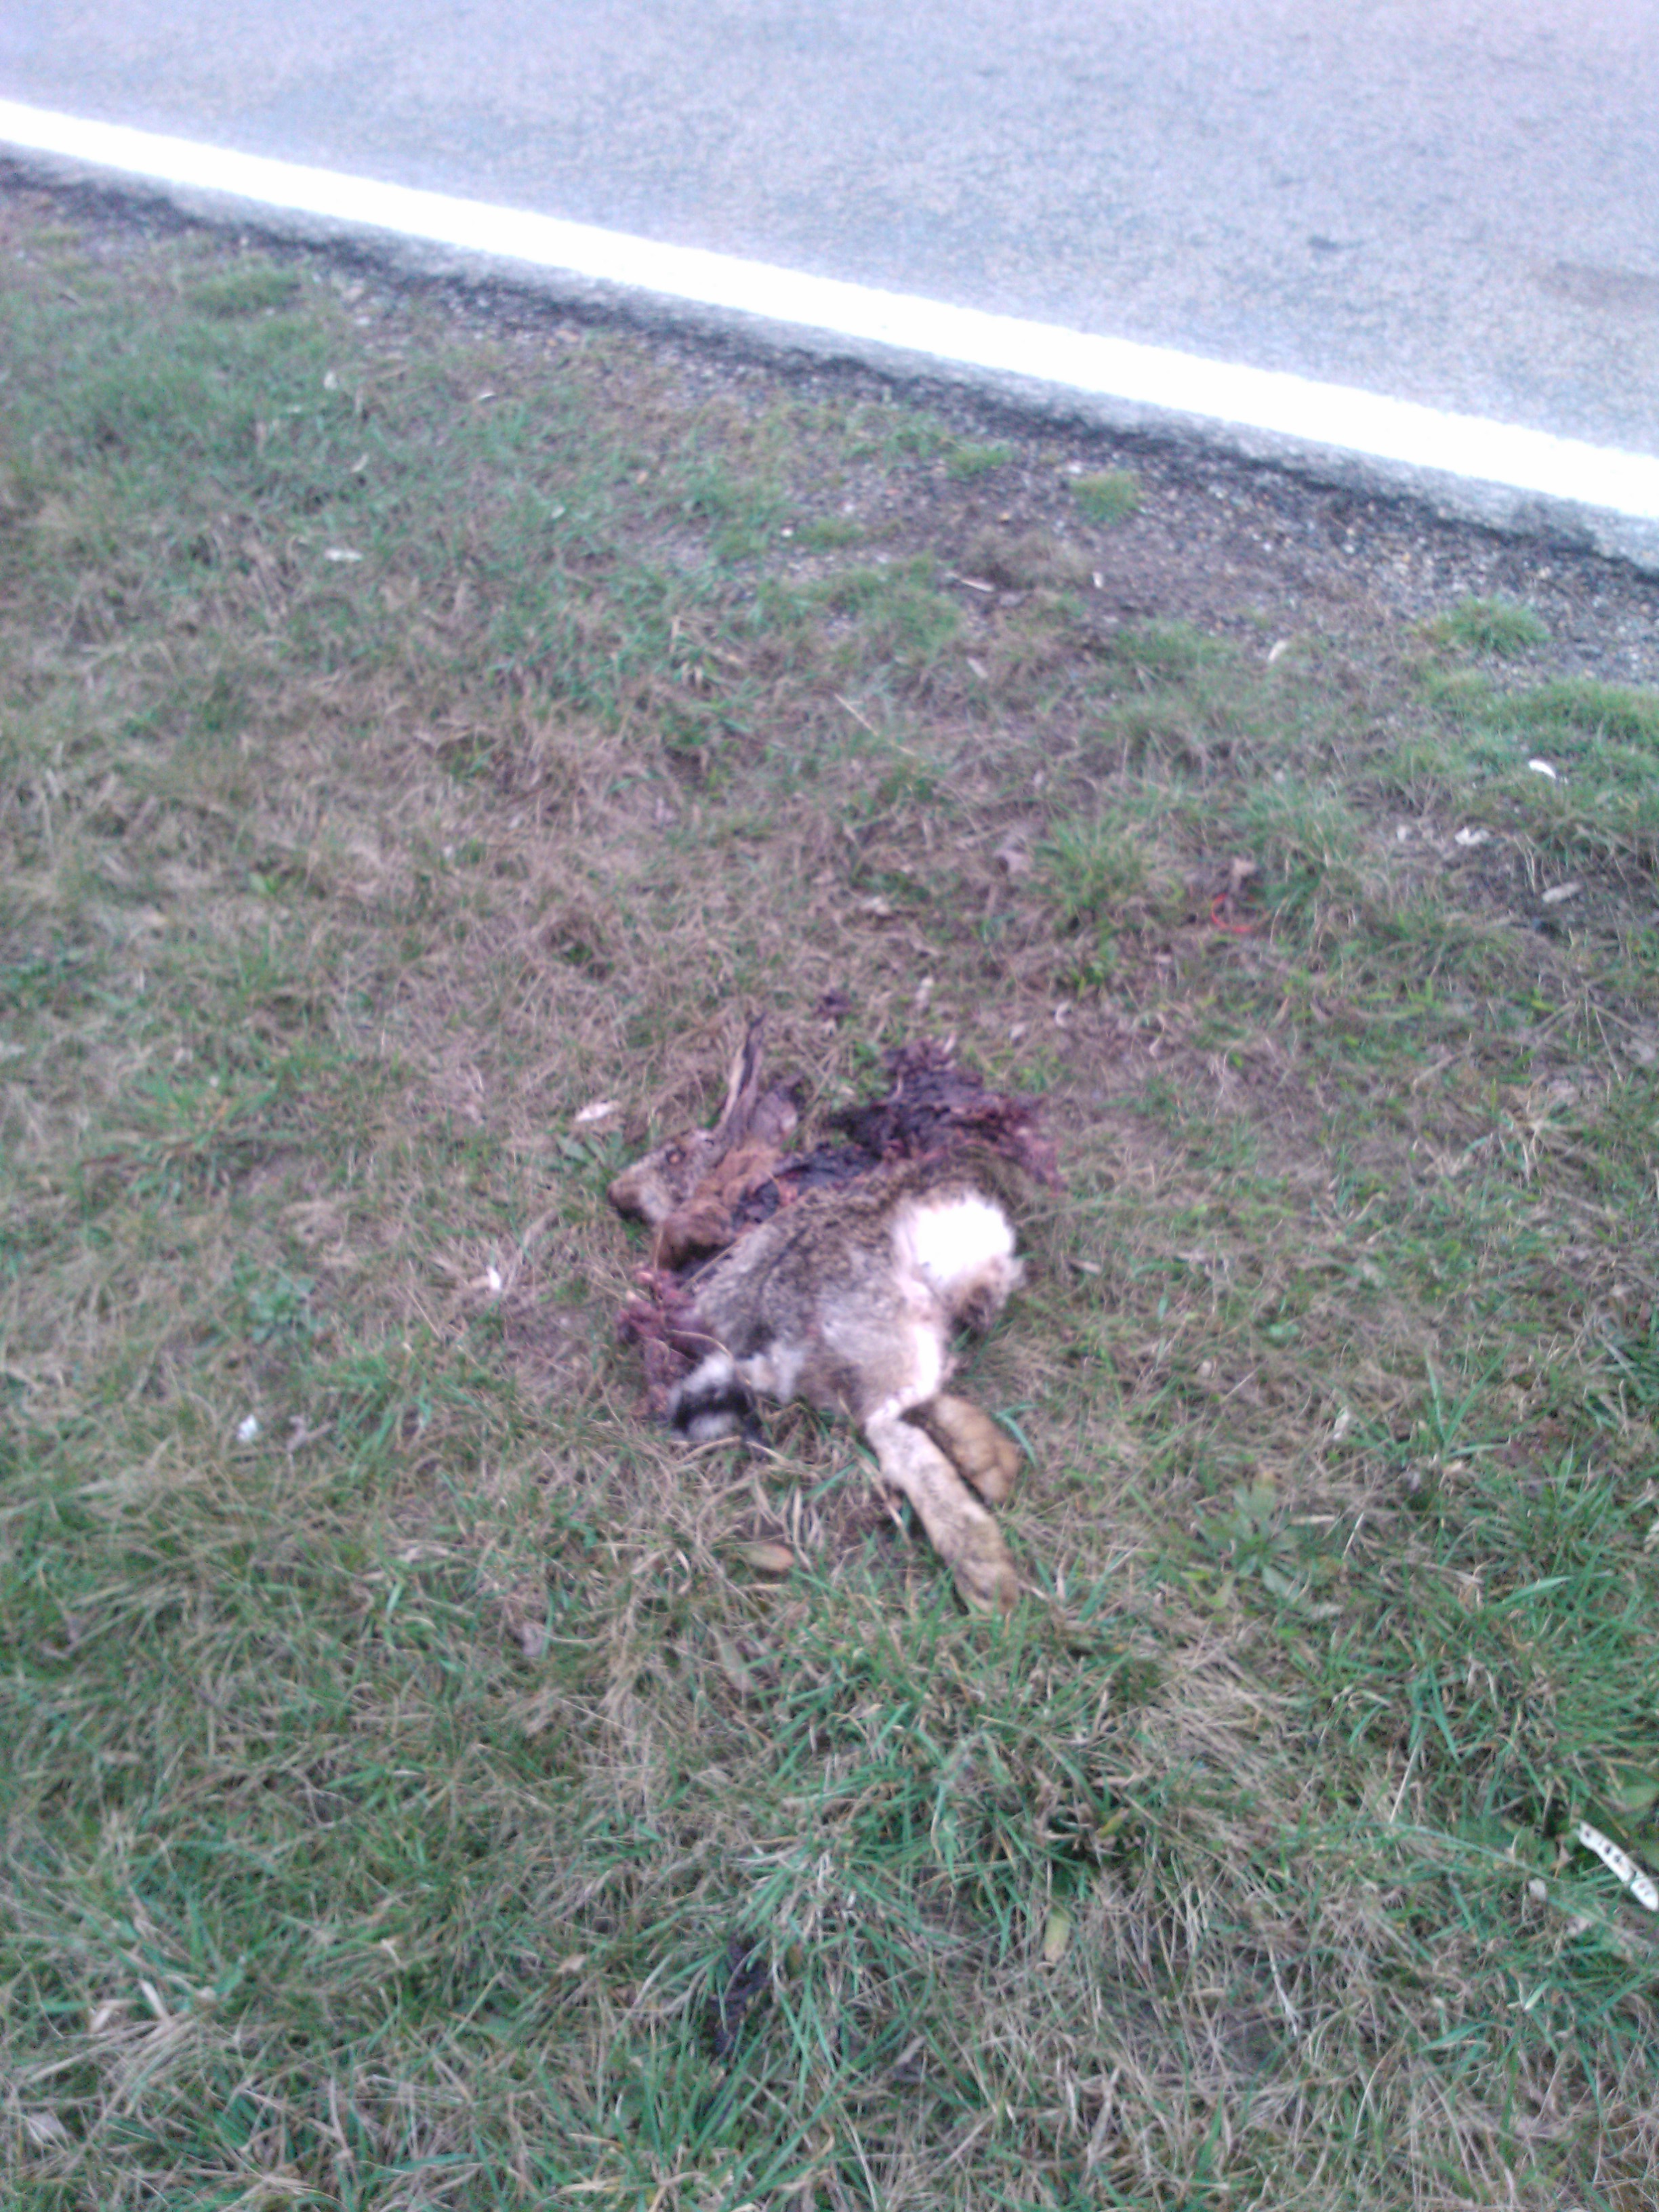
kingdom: Animalia
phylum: Chordata
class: Mammalia
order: Lagomorpha
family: Leporidae
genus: Lepus
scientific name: Lepus europaeus
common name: European hare
